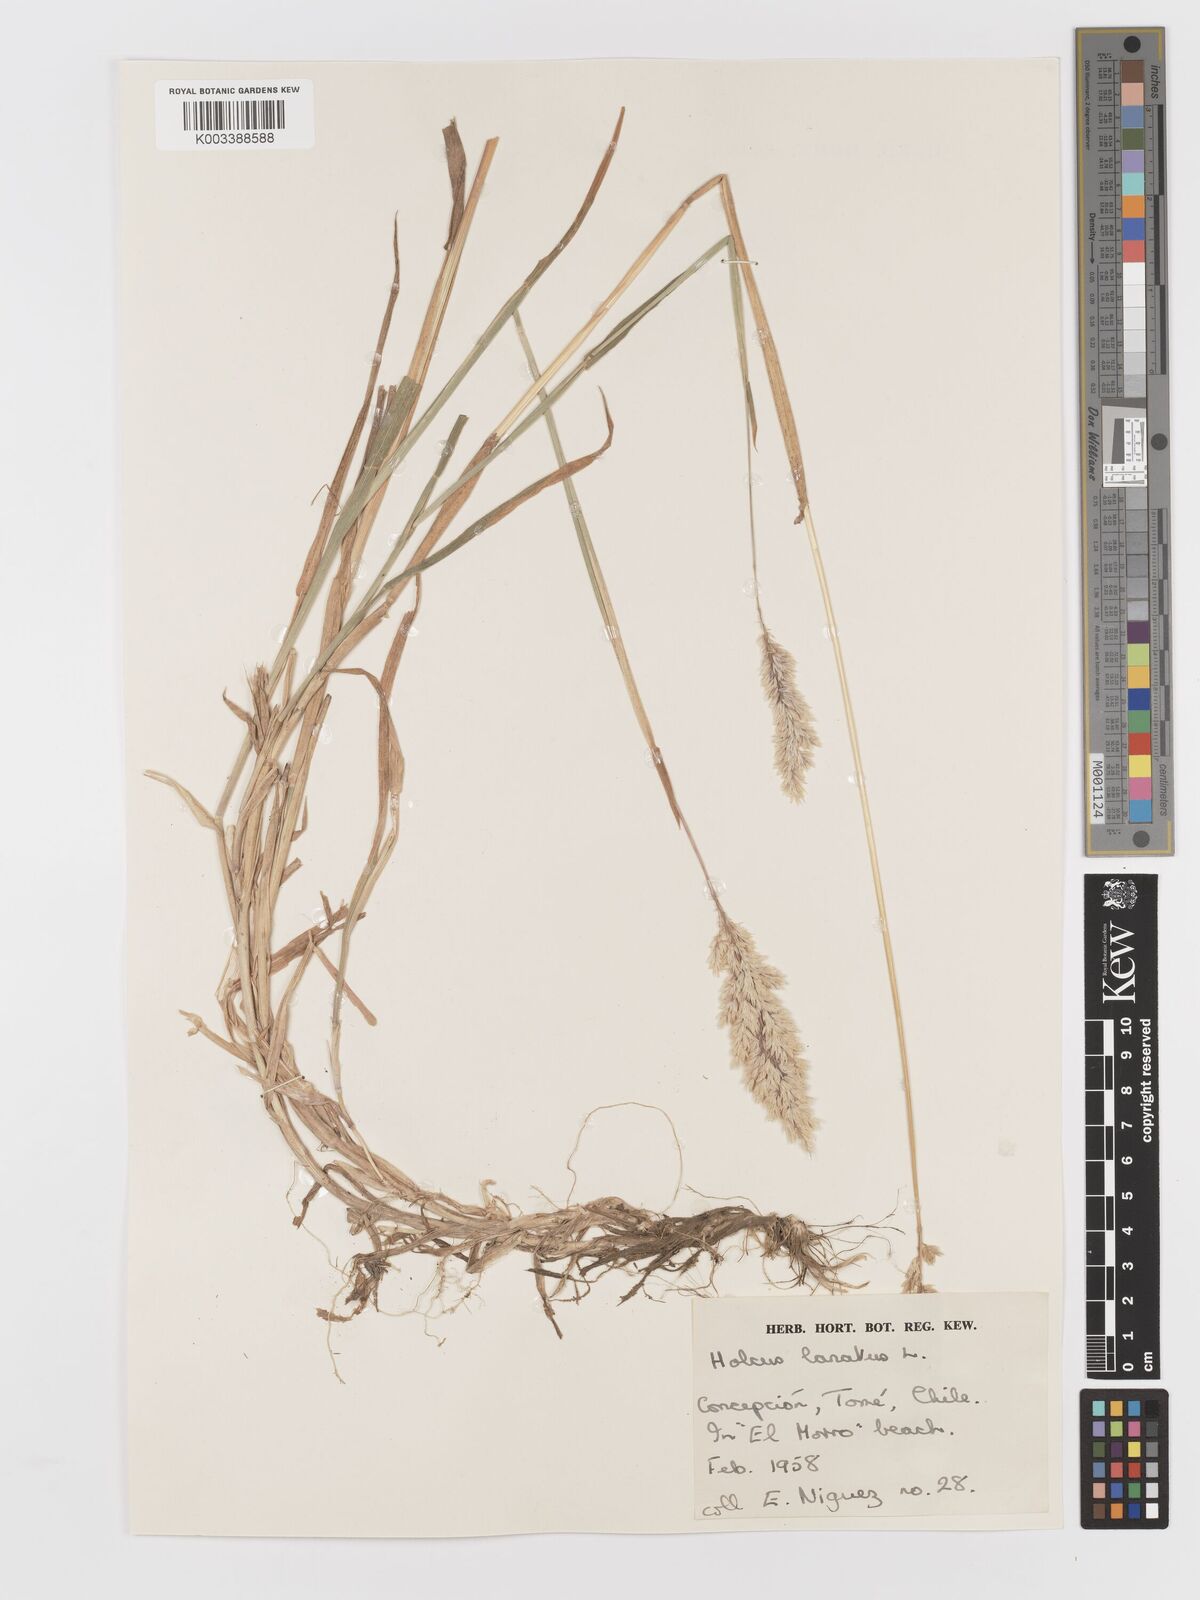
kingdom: Plantae
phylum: Tracheophyta
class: Liliopsida
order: Poales
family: Poaceae
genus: Holcus
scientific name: Holcus lanatus
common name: Yorkshire-fog
